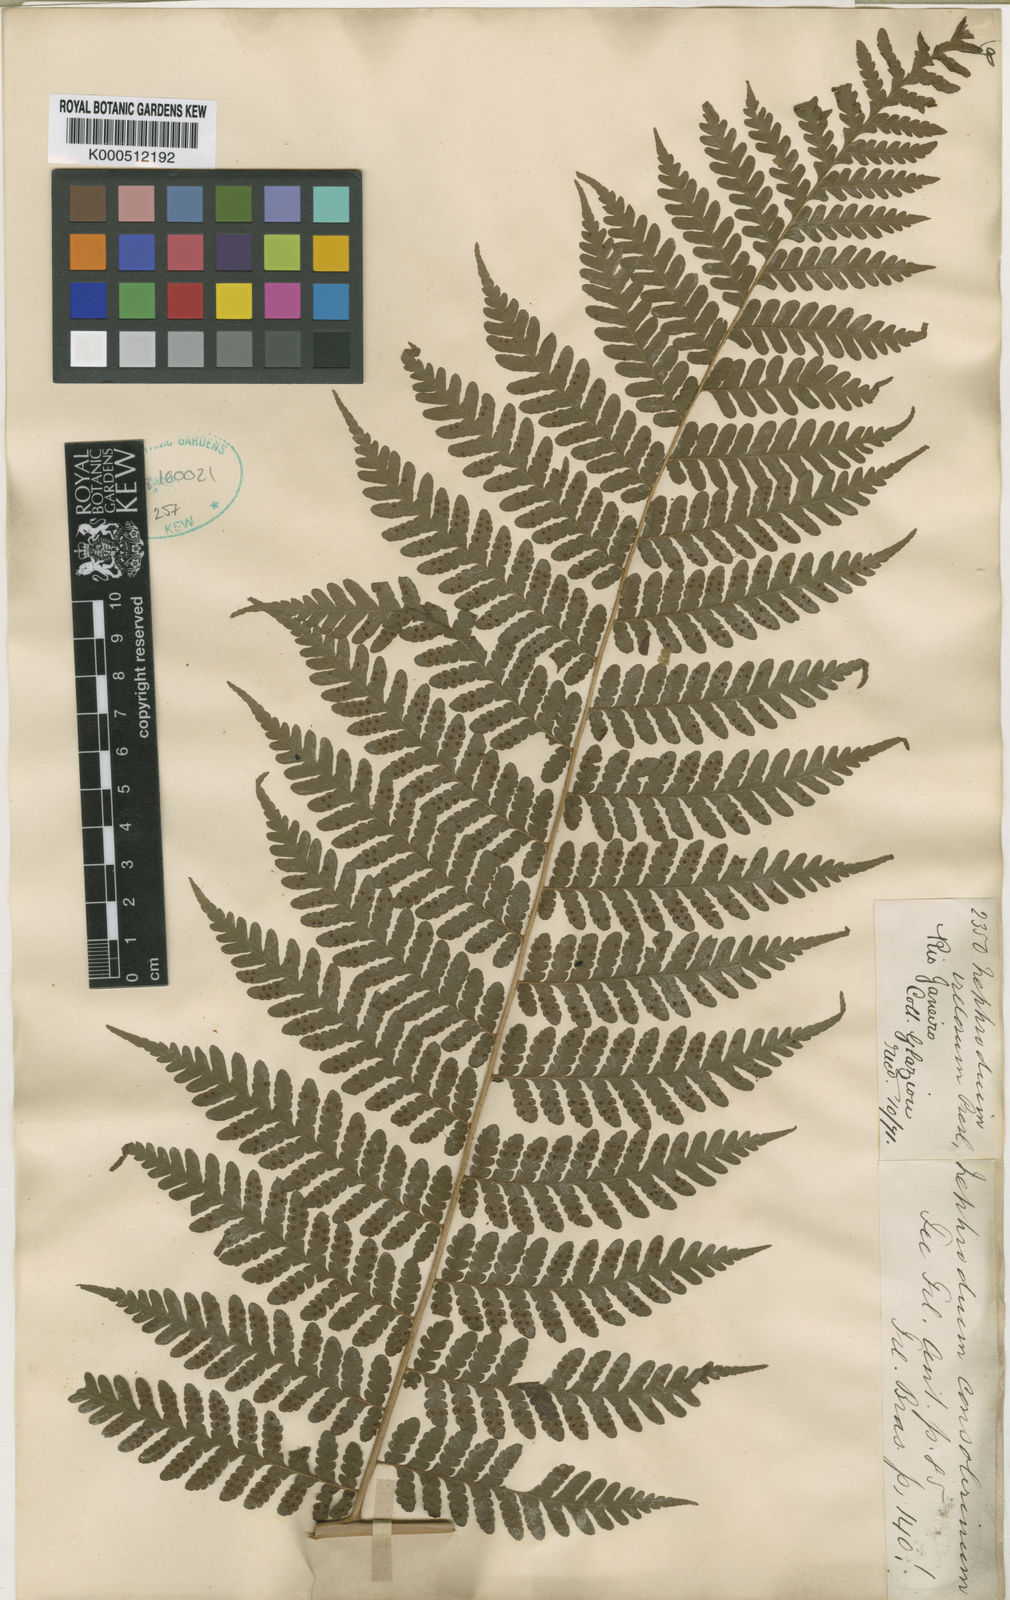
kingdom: Plantae
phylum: Tracheophyta
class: Polypodiopsida
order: Polypodiales
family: Dryopteridaceae
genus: Megalastrum
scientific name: Megalastrum subincisum
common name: Jagleaf junglefern
